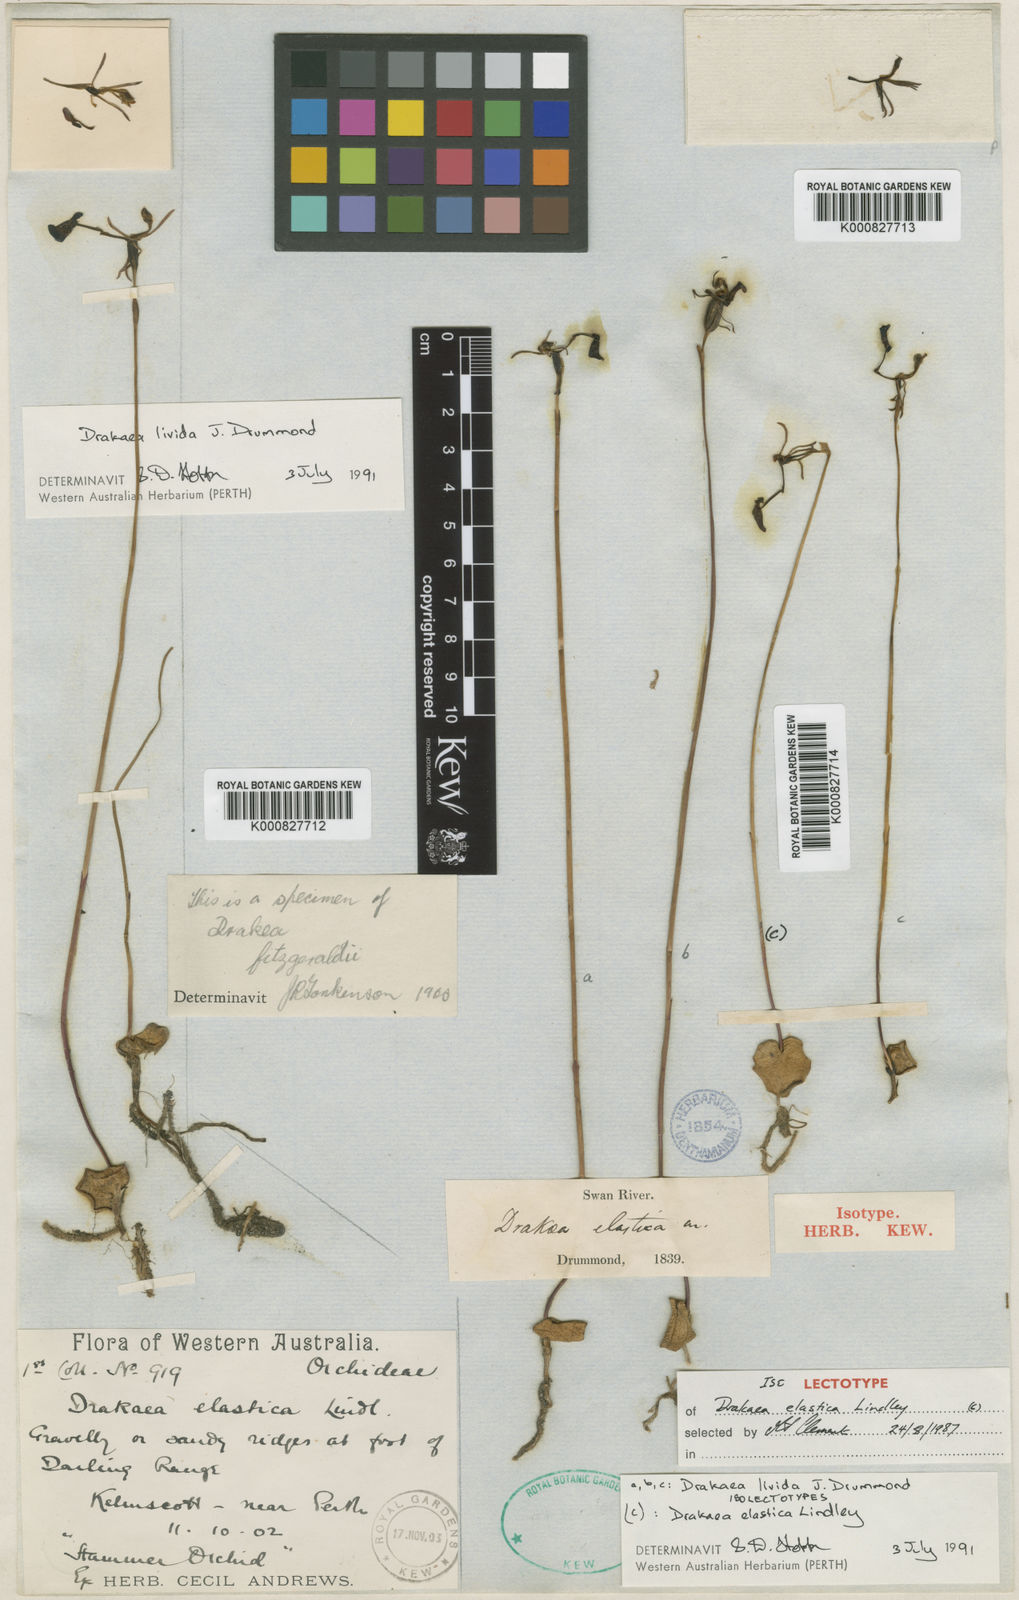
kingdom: Plantae
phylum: Tracheophyta
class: Liliopsida
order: Asparagales
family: Orchidaceae
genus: Drakaea
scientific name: Drakaea elastica
